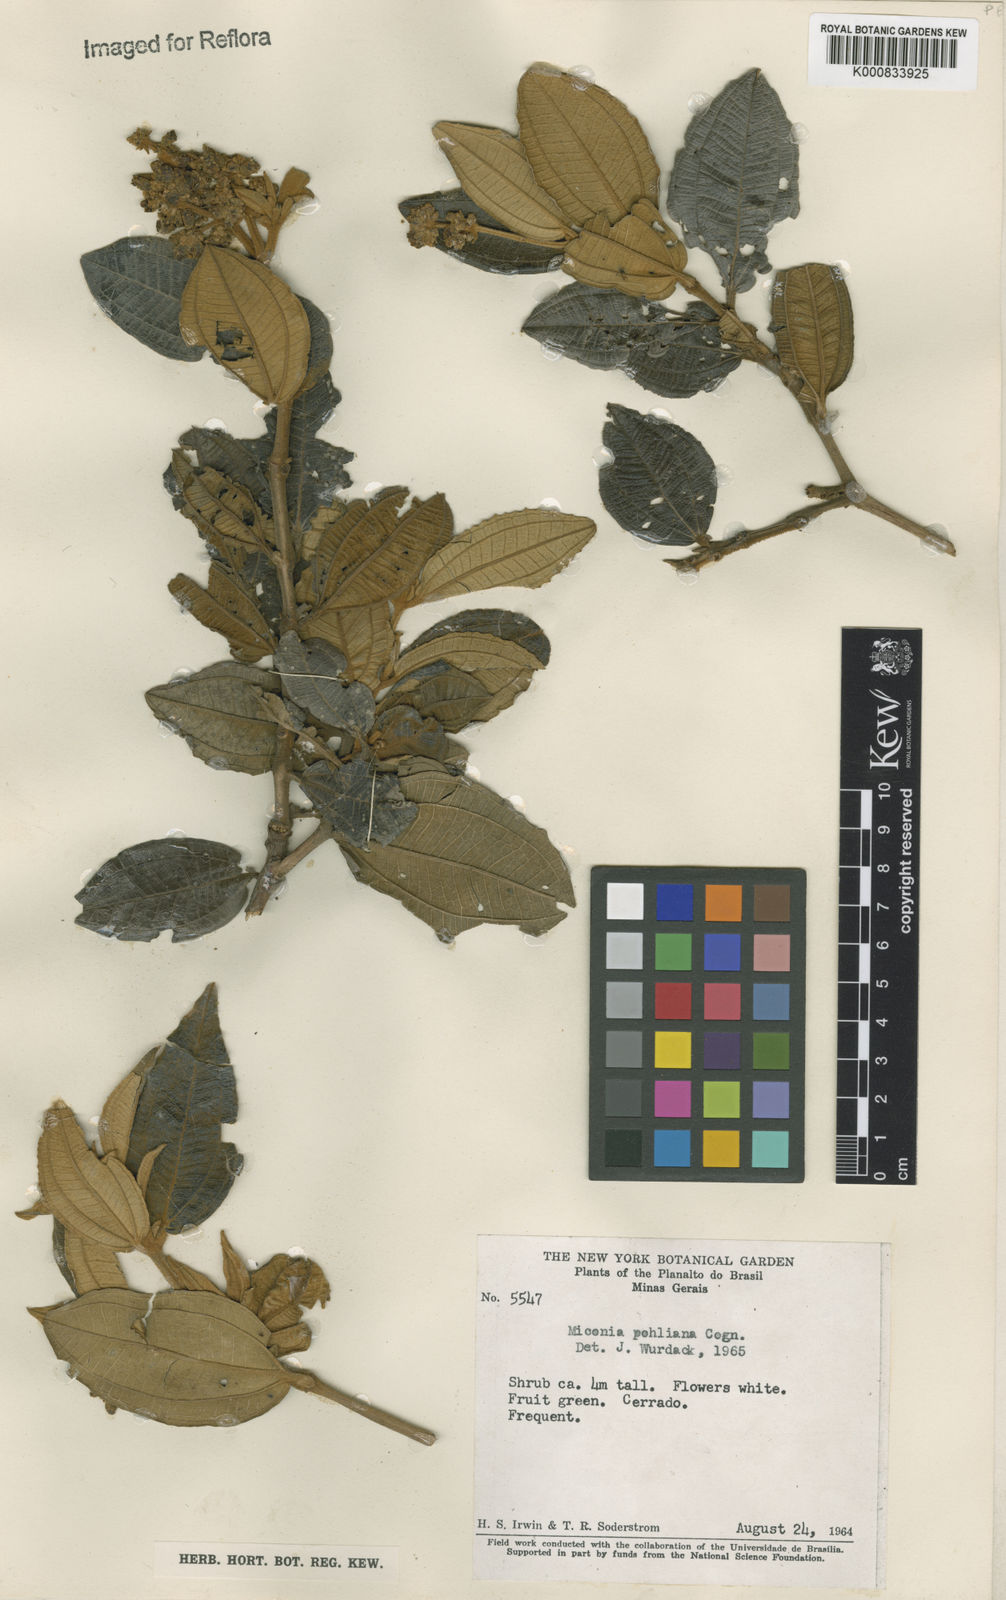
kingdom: Plantae
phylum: Tracheophyta
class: Magnoliopsida
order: Myrtales
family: Melastomataceae
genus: Miconia
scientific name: Miconia leucocarpa
